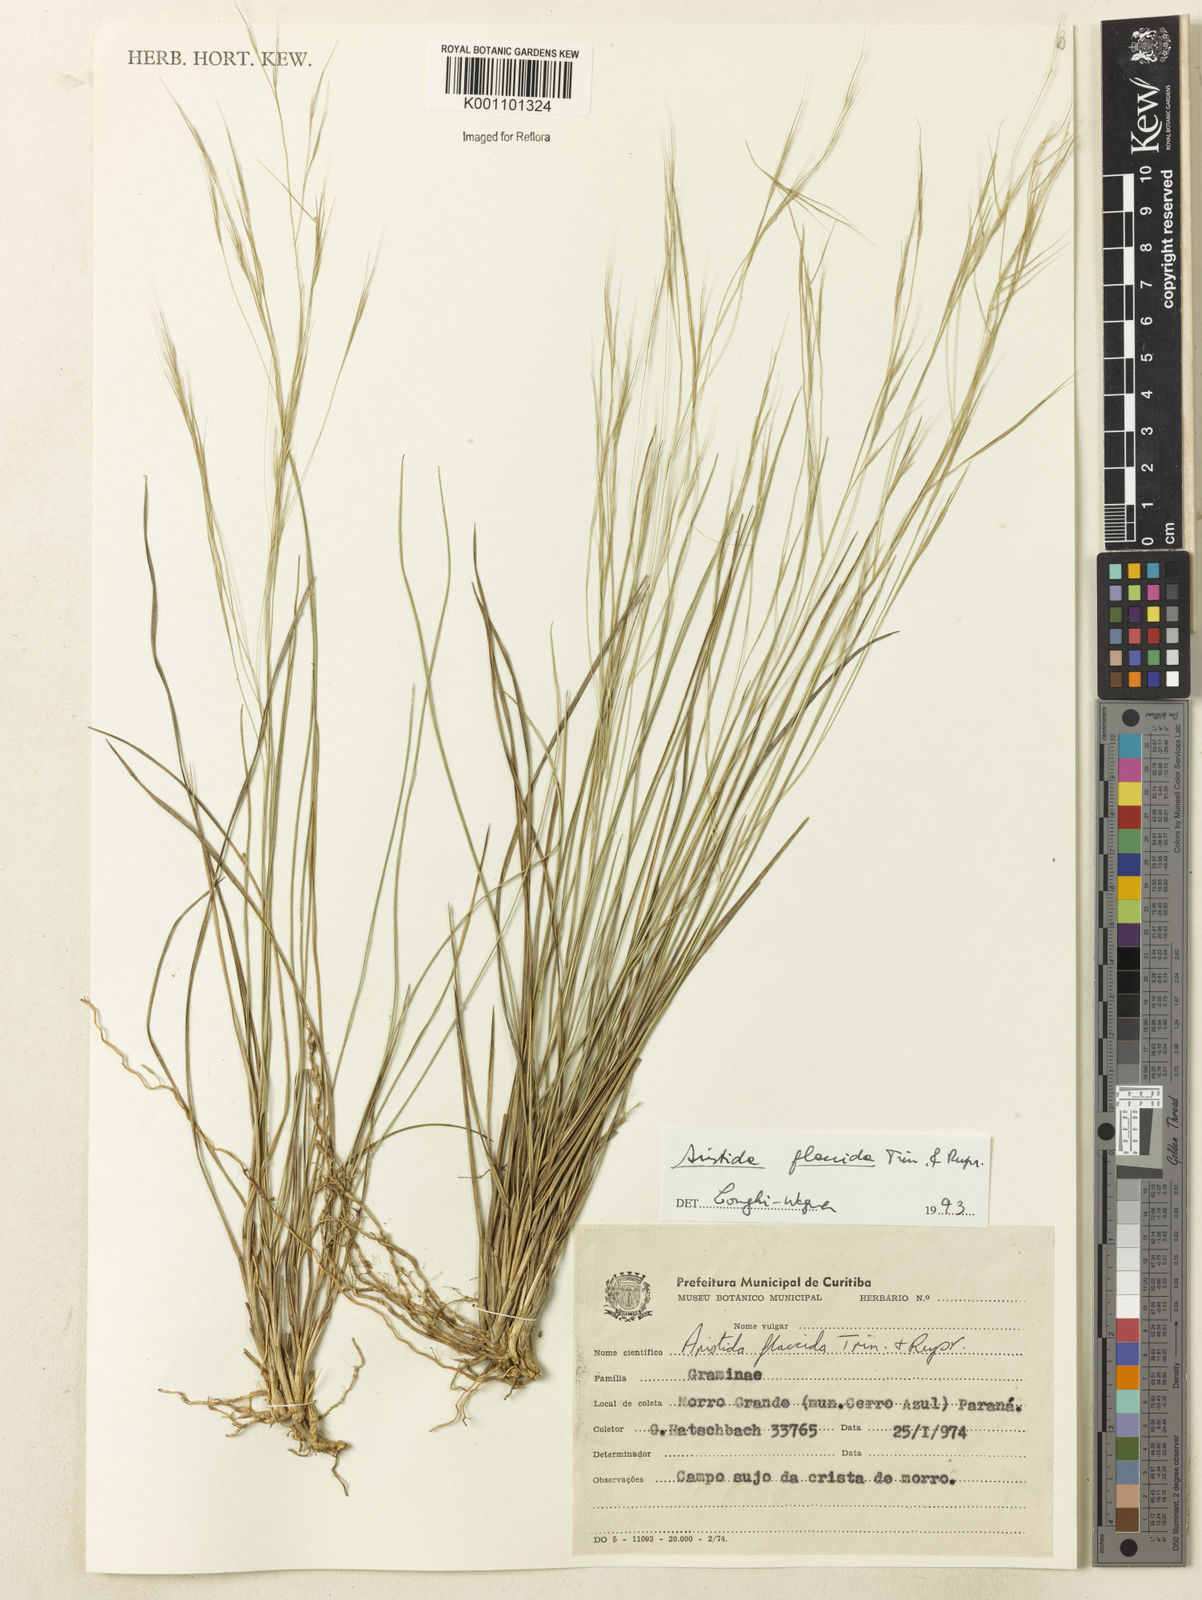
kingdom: Plantae
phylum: Tracheophyta
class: Liliopsida
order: Poales
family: Poaceae
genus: Aristida
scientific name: Aristida flaccida
